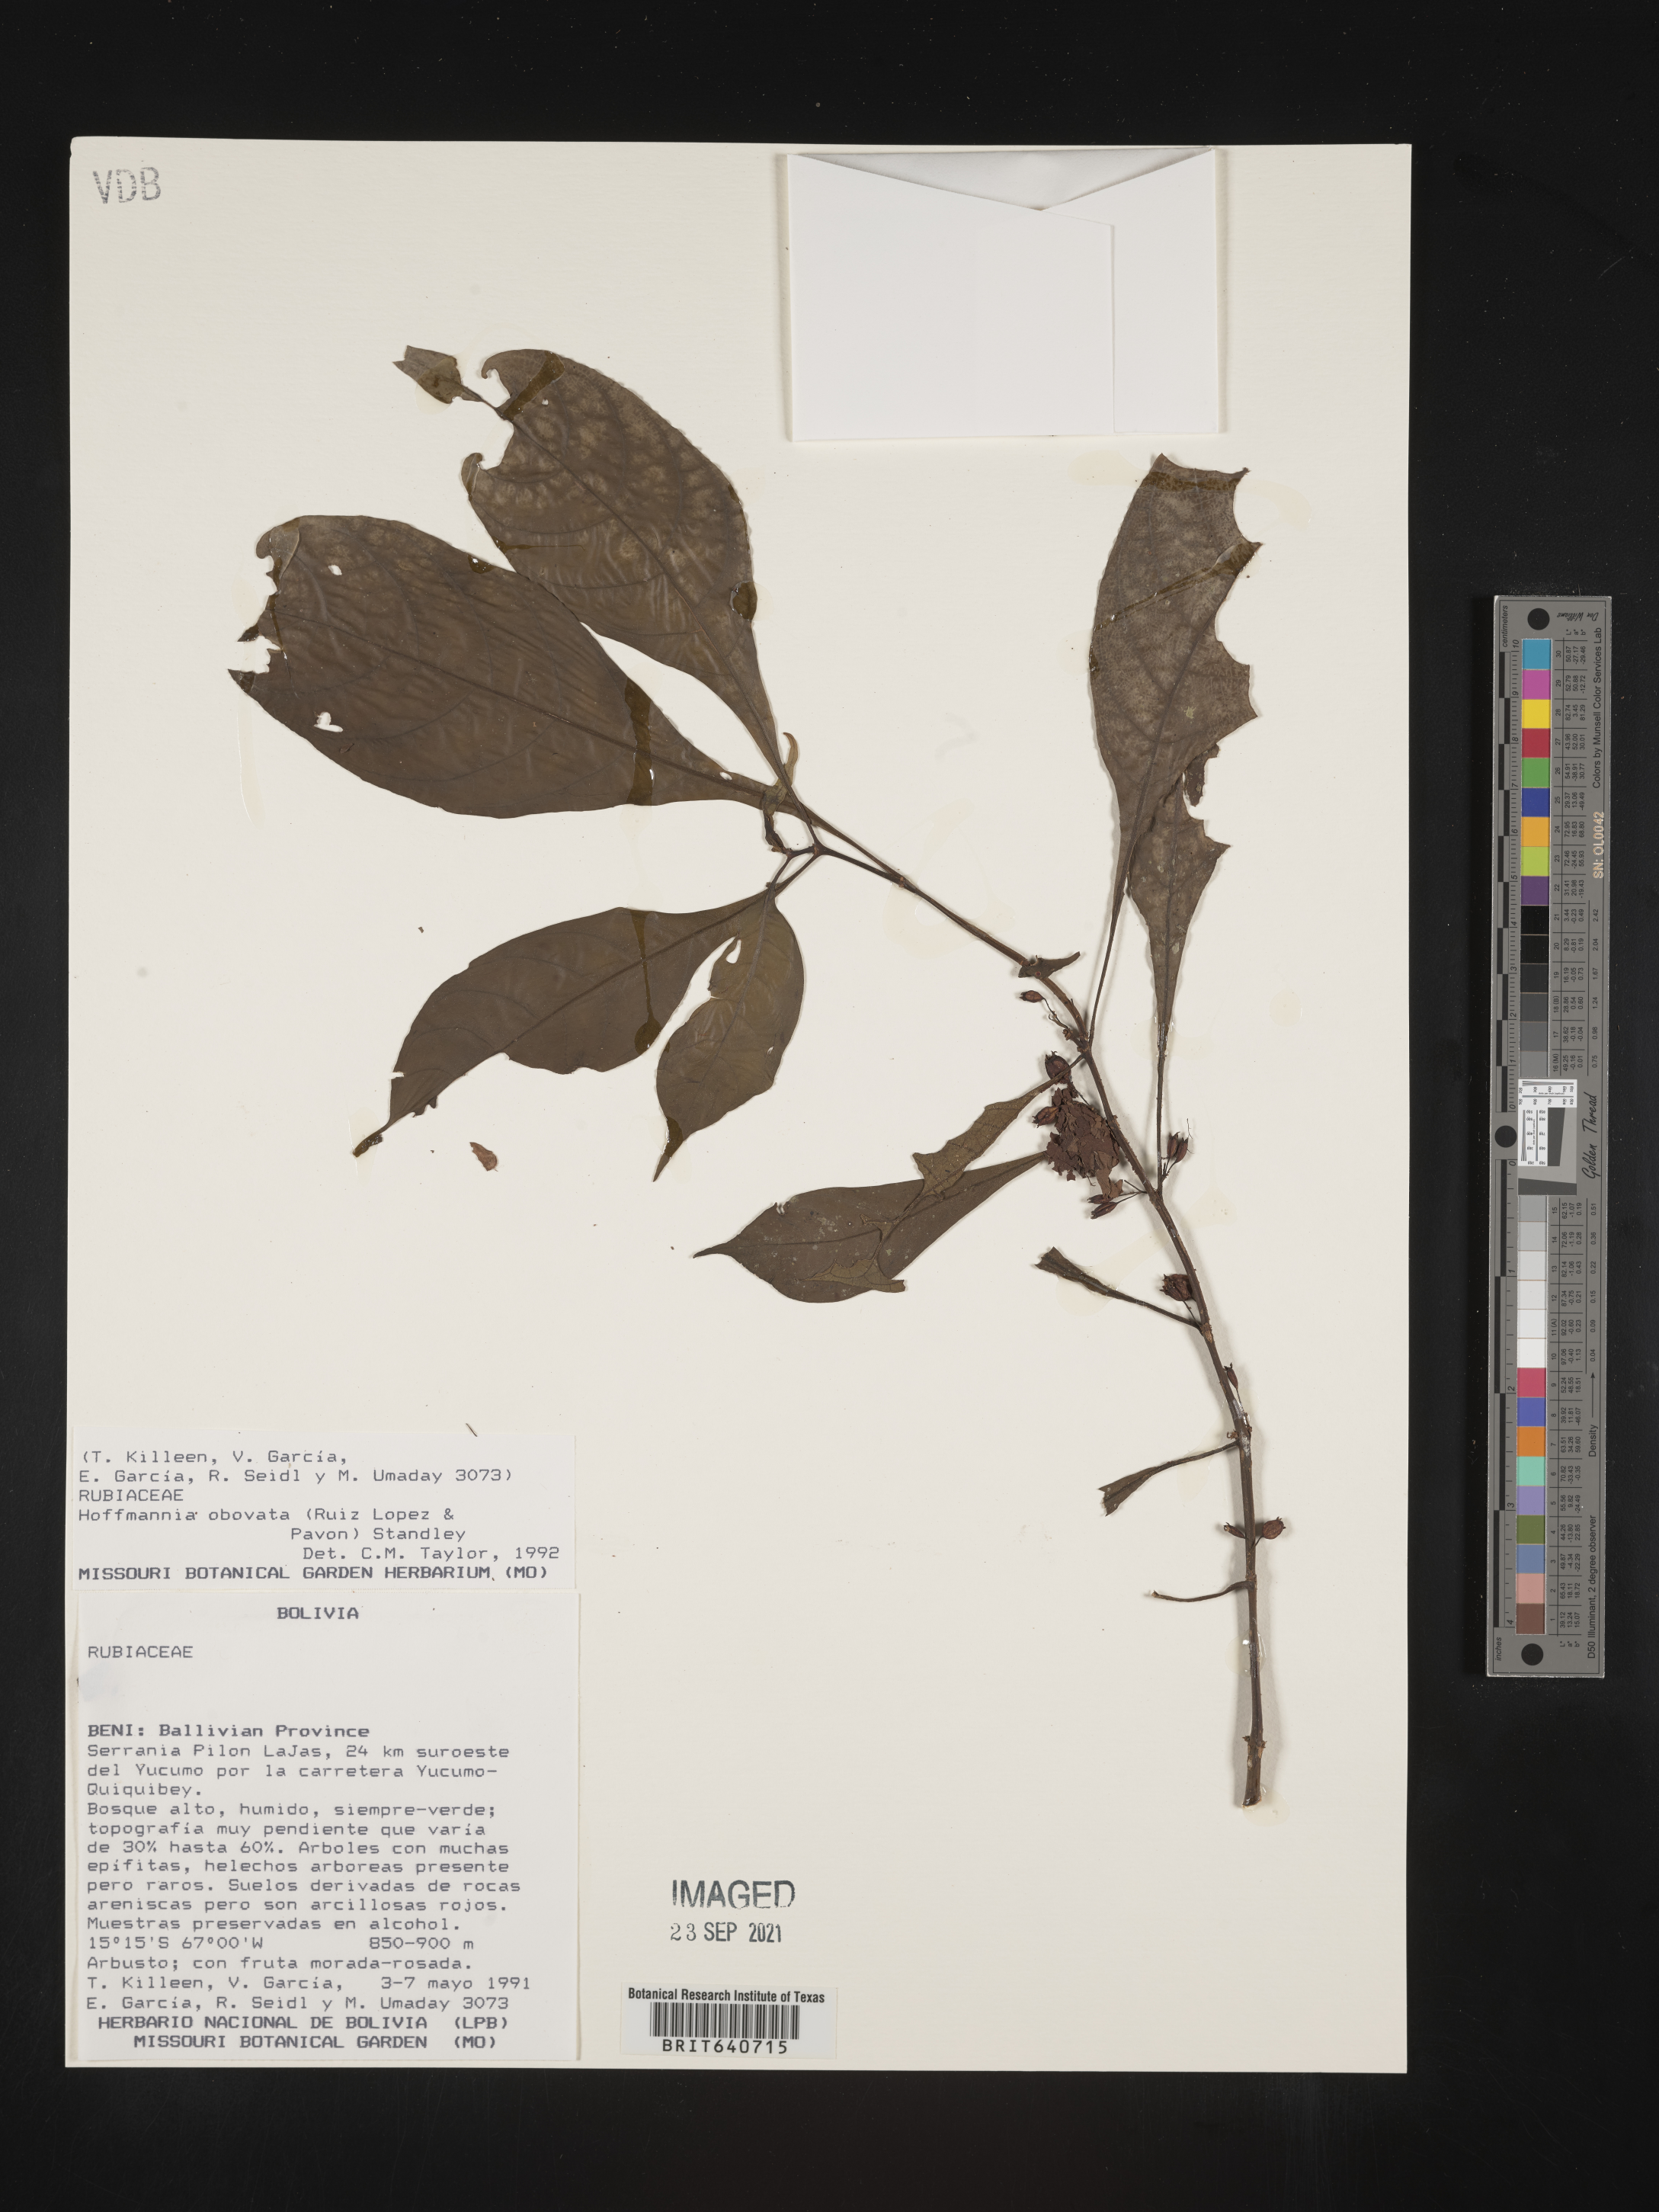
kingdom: Plantae
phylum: Tracheophyta
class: Magnoliopsida
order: Gentianales
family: Rubiaceae
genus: Hoffmannia
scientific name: Hoffmannia
